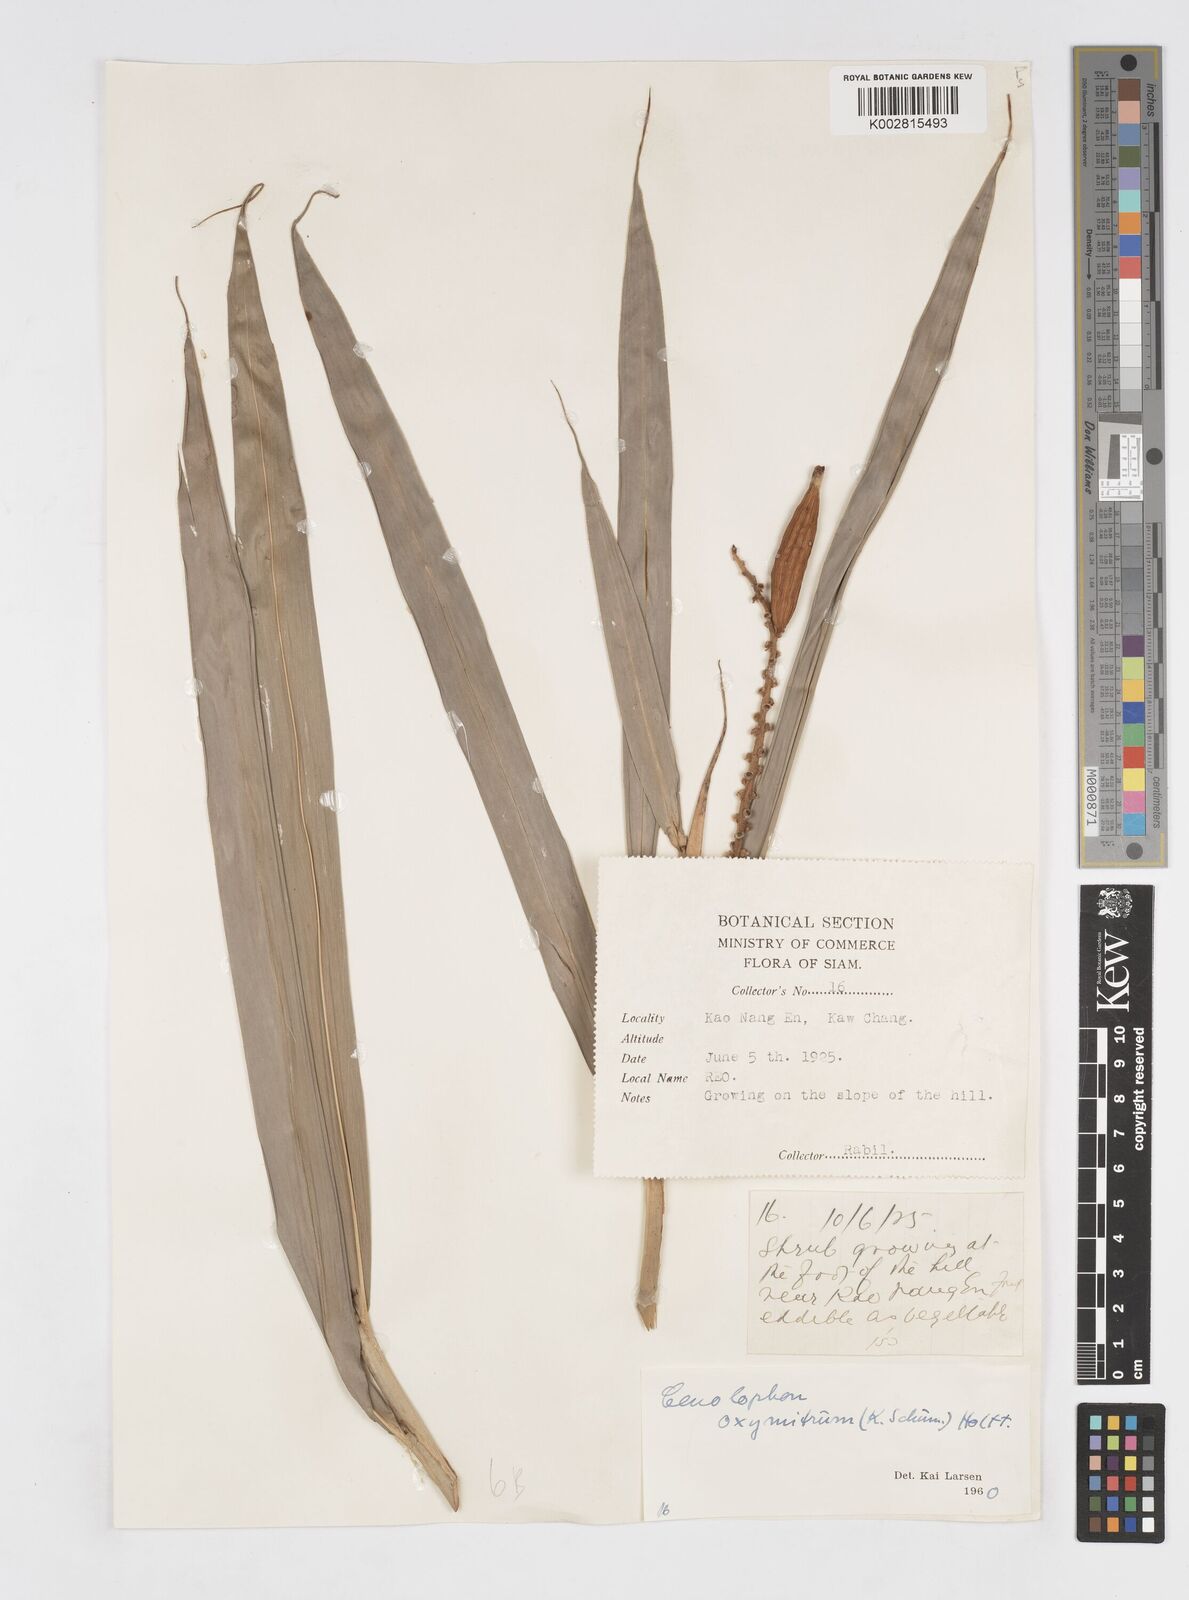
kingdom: Plantae
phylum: Tracheophyta
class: Liliopsida
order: Zingiberales
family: Zingiberaceae
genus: Alpinia
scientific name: Alpinia oxymitra
